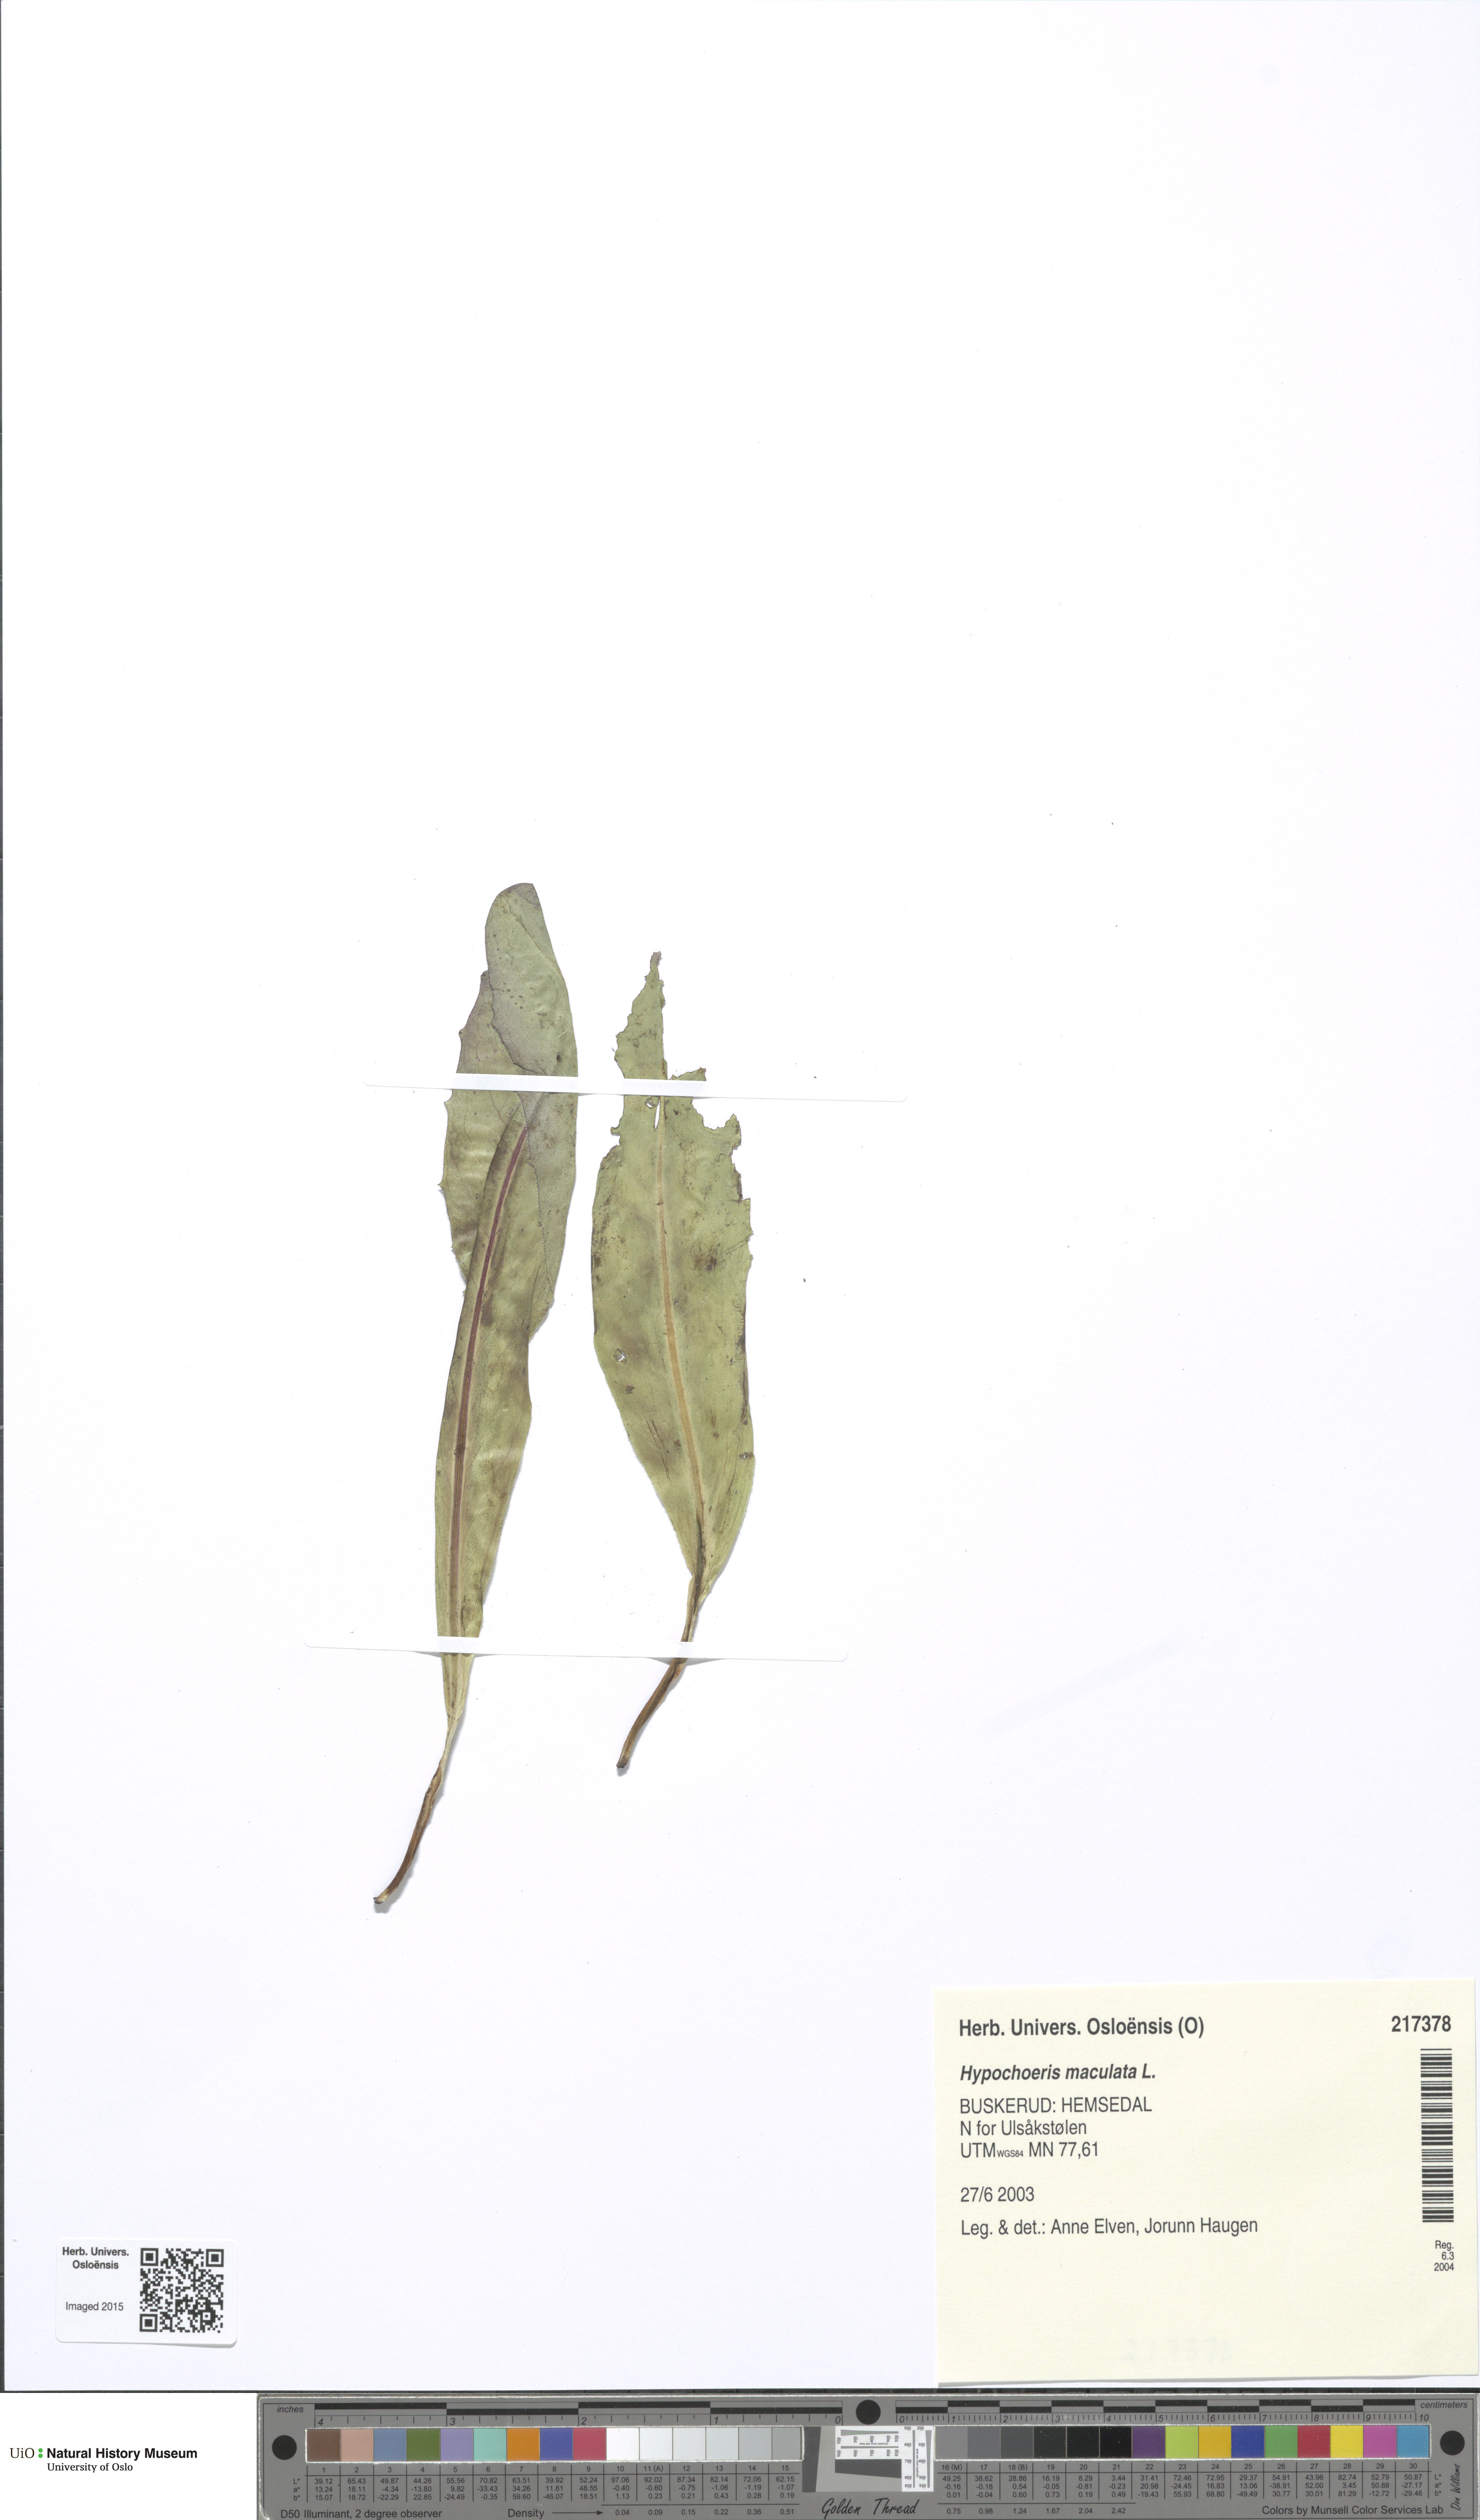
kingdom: Plantae
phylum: Tracheophyta
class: Magnoliopsida
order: Asterales
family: Asteraceae
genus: Trommsdorffia
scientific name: Trommsdorffia maculata
